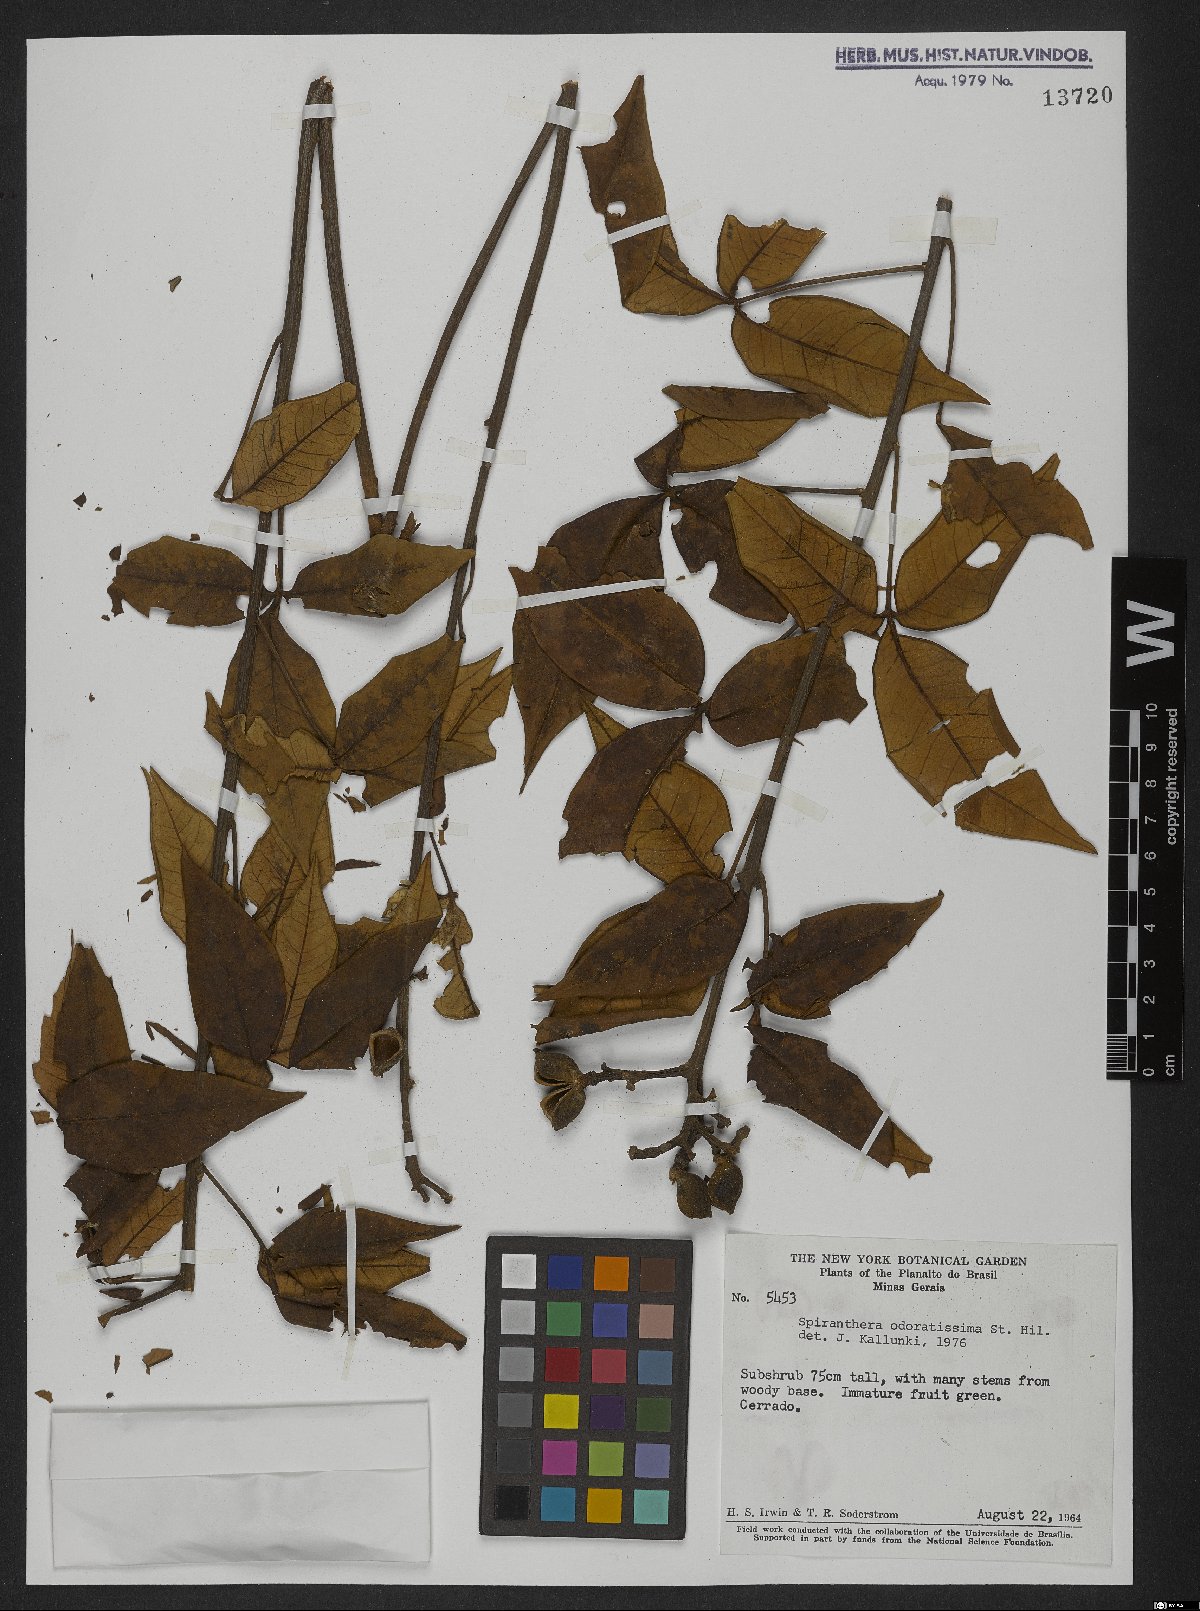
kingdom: Plantae
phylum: Tracheophyta
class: Magnoliopsida
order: Sapindales
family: Rutaceae
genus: Spiranthera
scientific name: Spiranthera odoratissima
